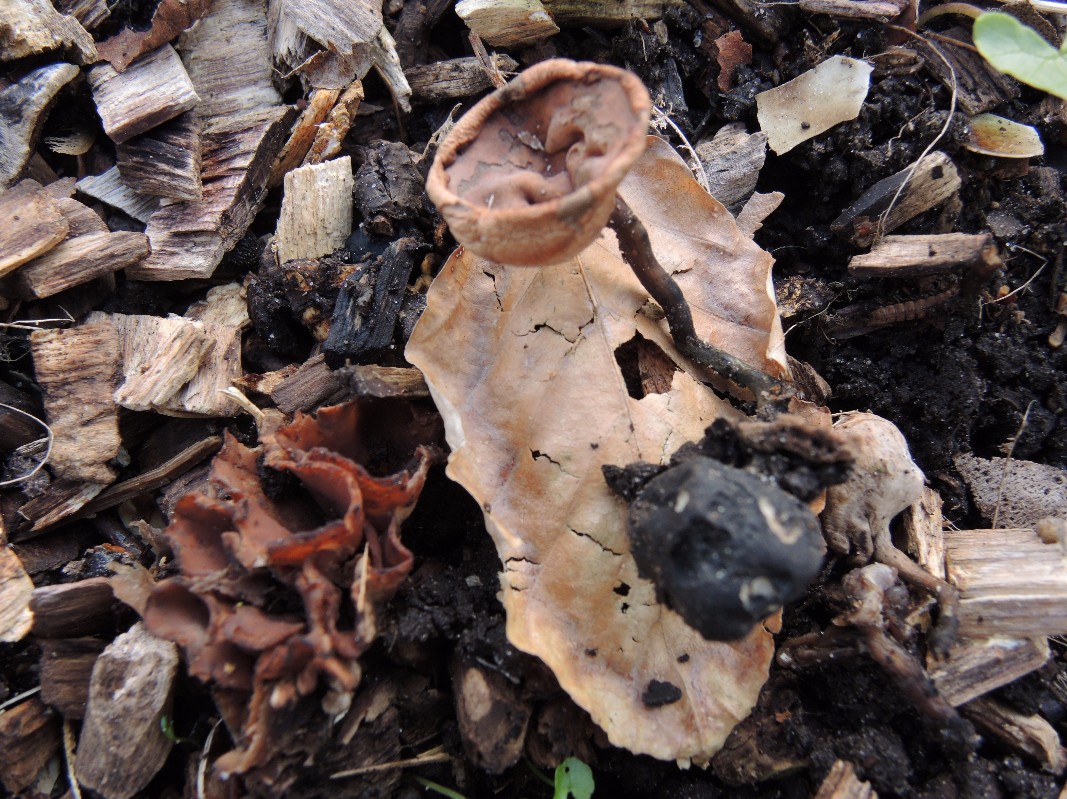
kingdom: Fungi
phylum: Ascomycota
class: Leotiomycetes
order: Helotiales
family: Sclerotiniaceae
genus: Dumontinia
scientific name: Dumontinia tuberosa
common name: anemone-knoldskive
